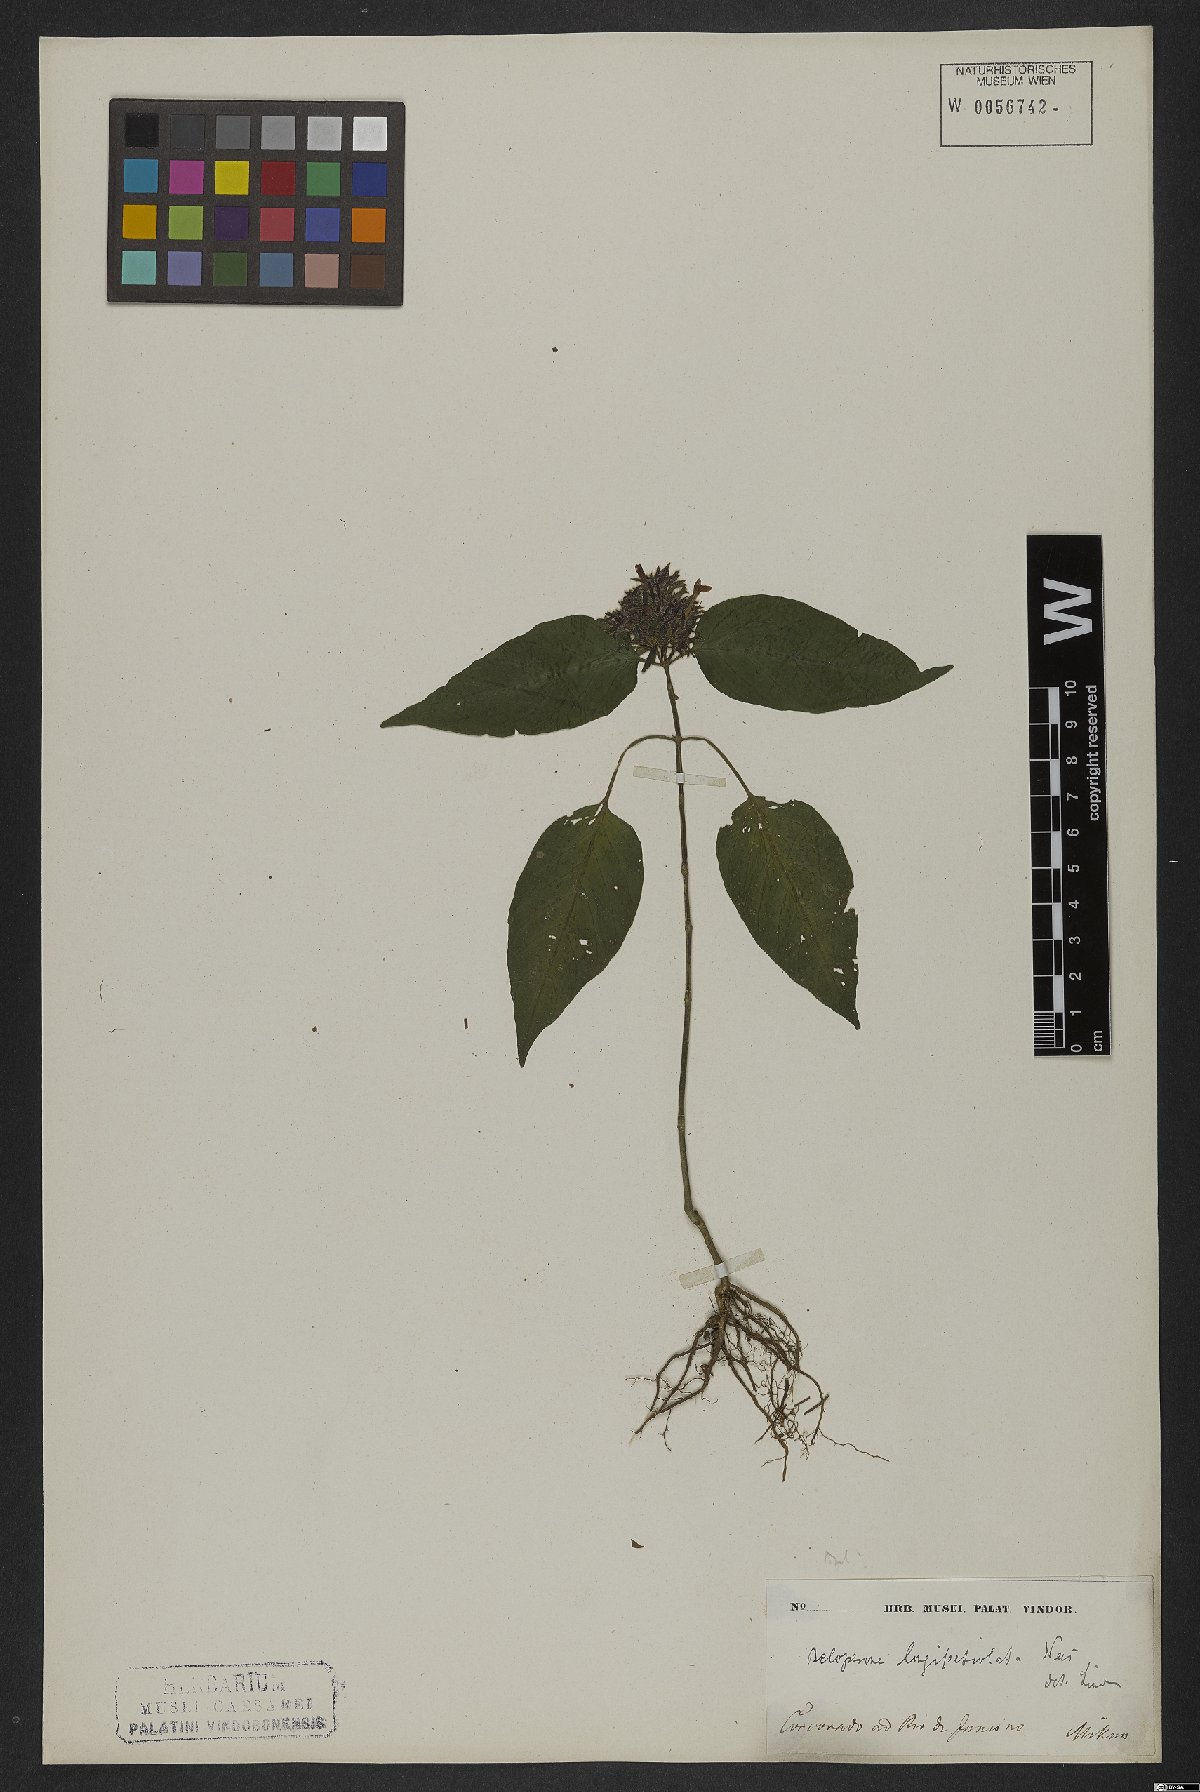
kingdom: Plantae
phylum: Tracheophyta
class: Magnoliopsida
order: Lamiales
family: Acanthaceae
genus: Justicia
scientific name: Justicia longepetiolata
